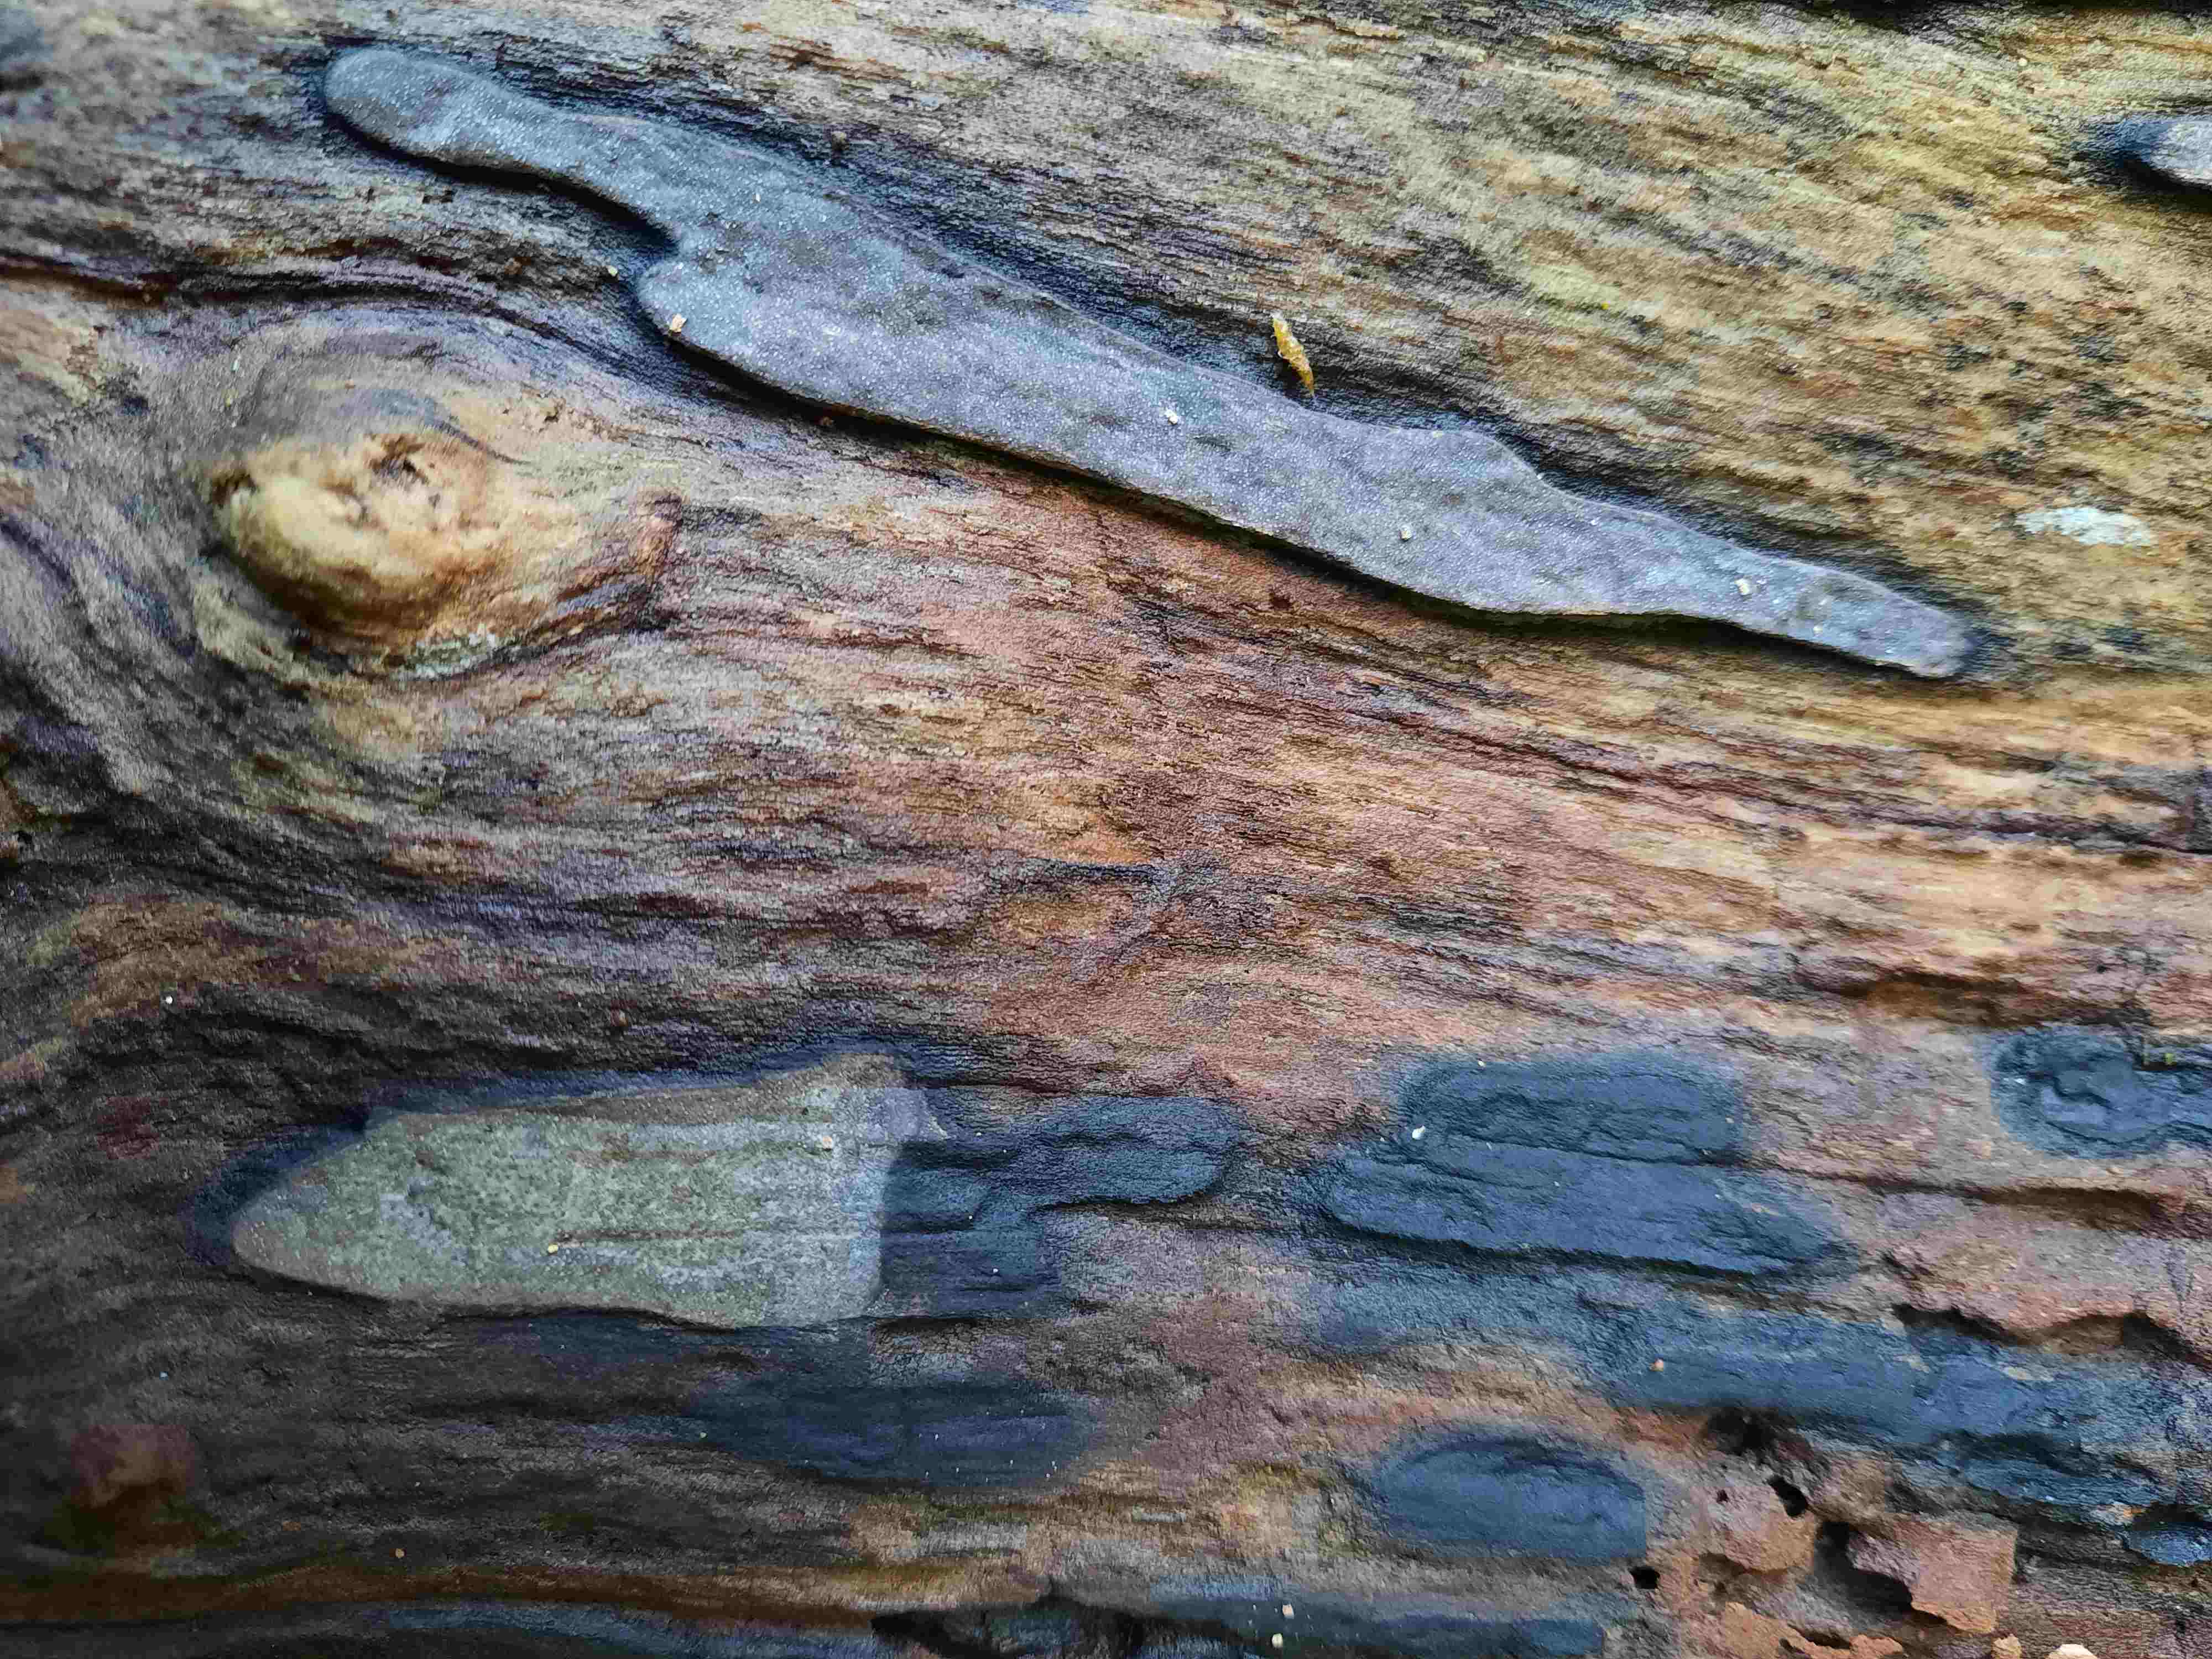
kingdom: Fungi
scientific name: Fungi
